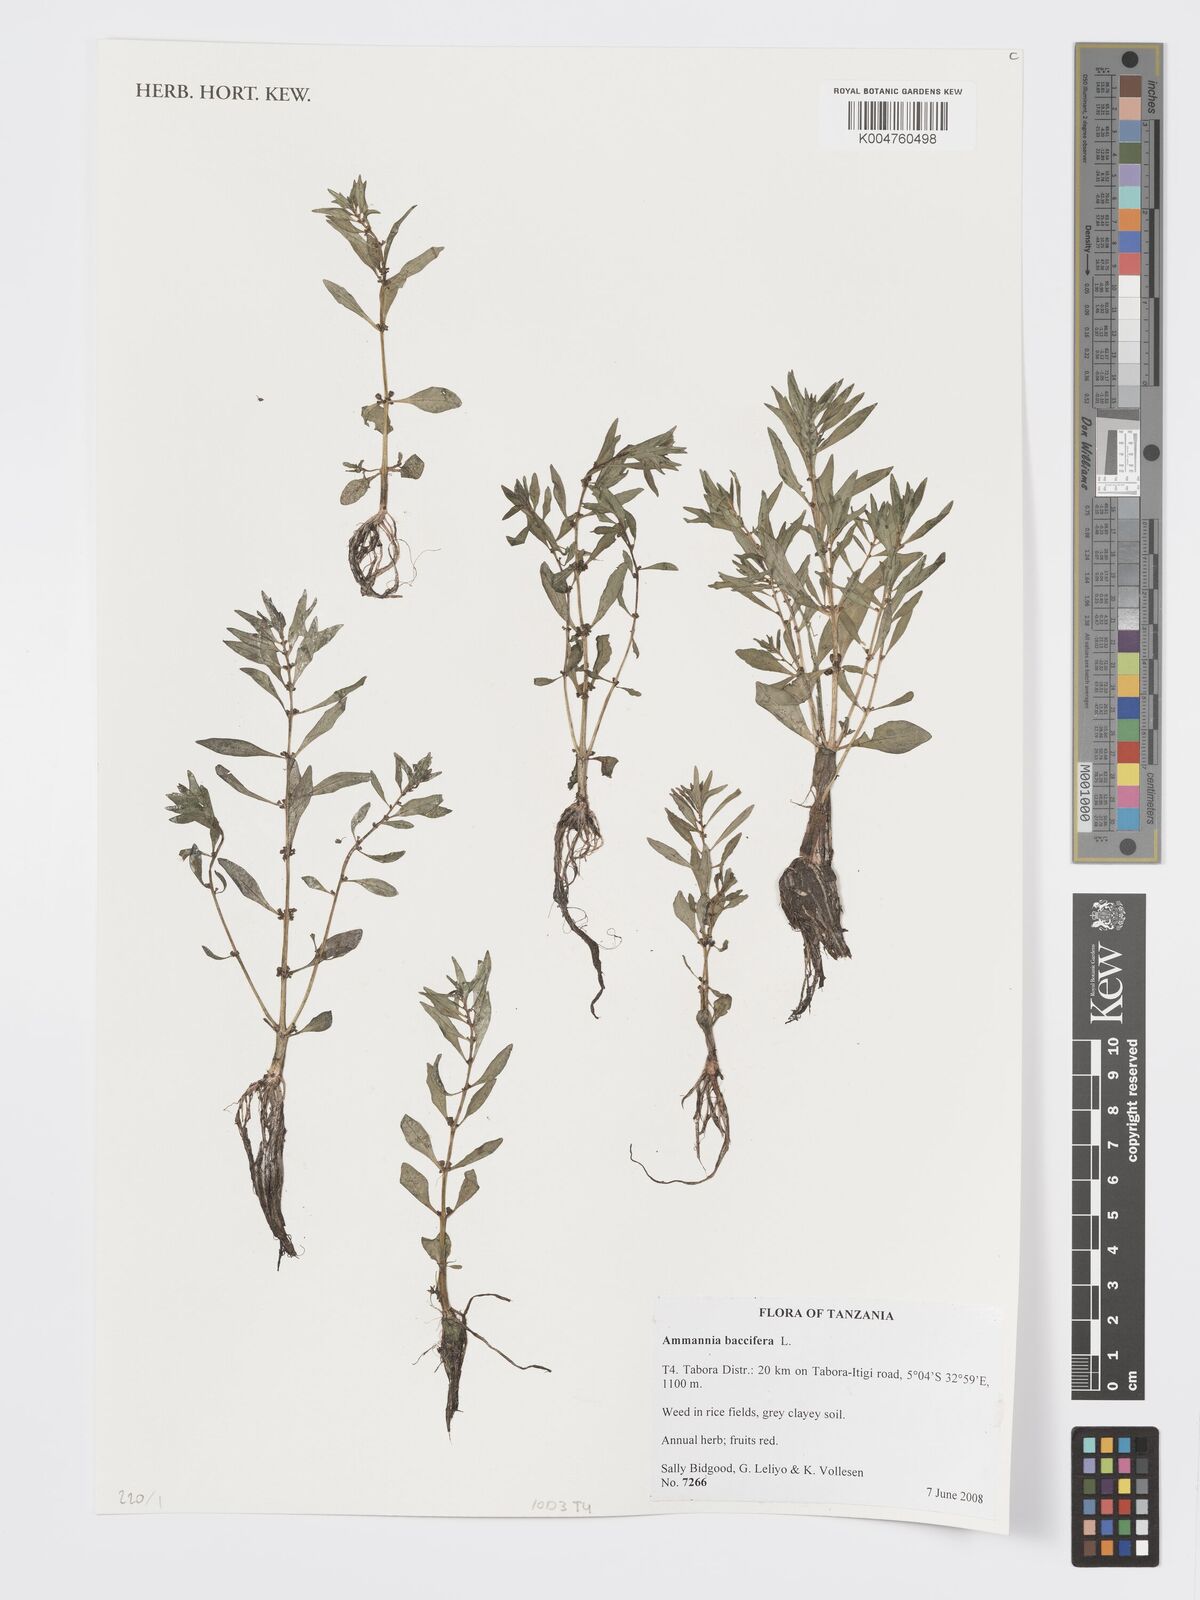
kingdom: Plantae
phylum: Tracheophyta
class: Magnoliopsida
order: Myrtales
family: Lythraceae
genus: Ammannia
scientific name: Ammannia
